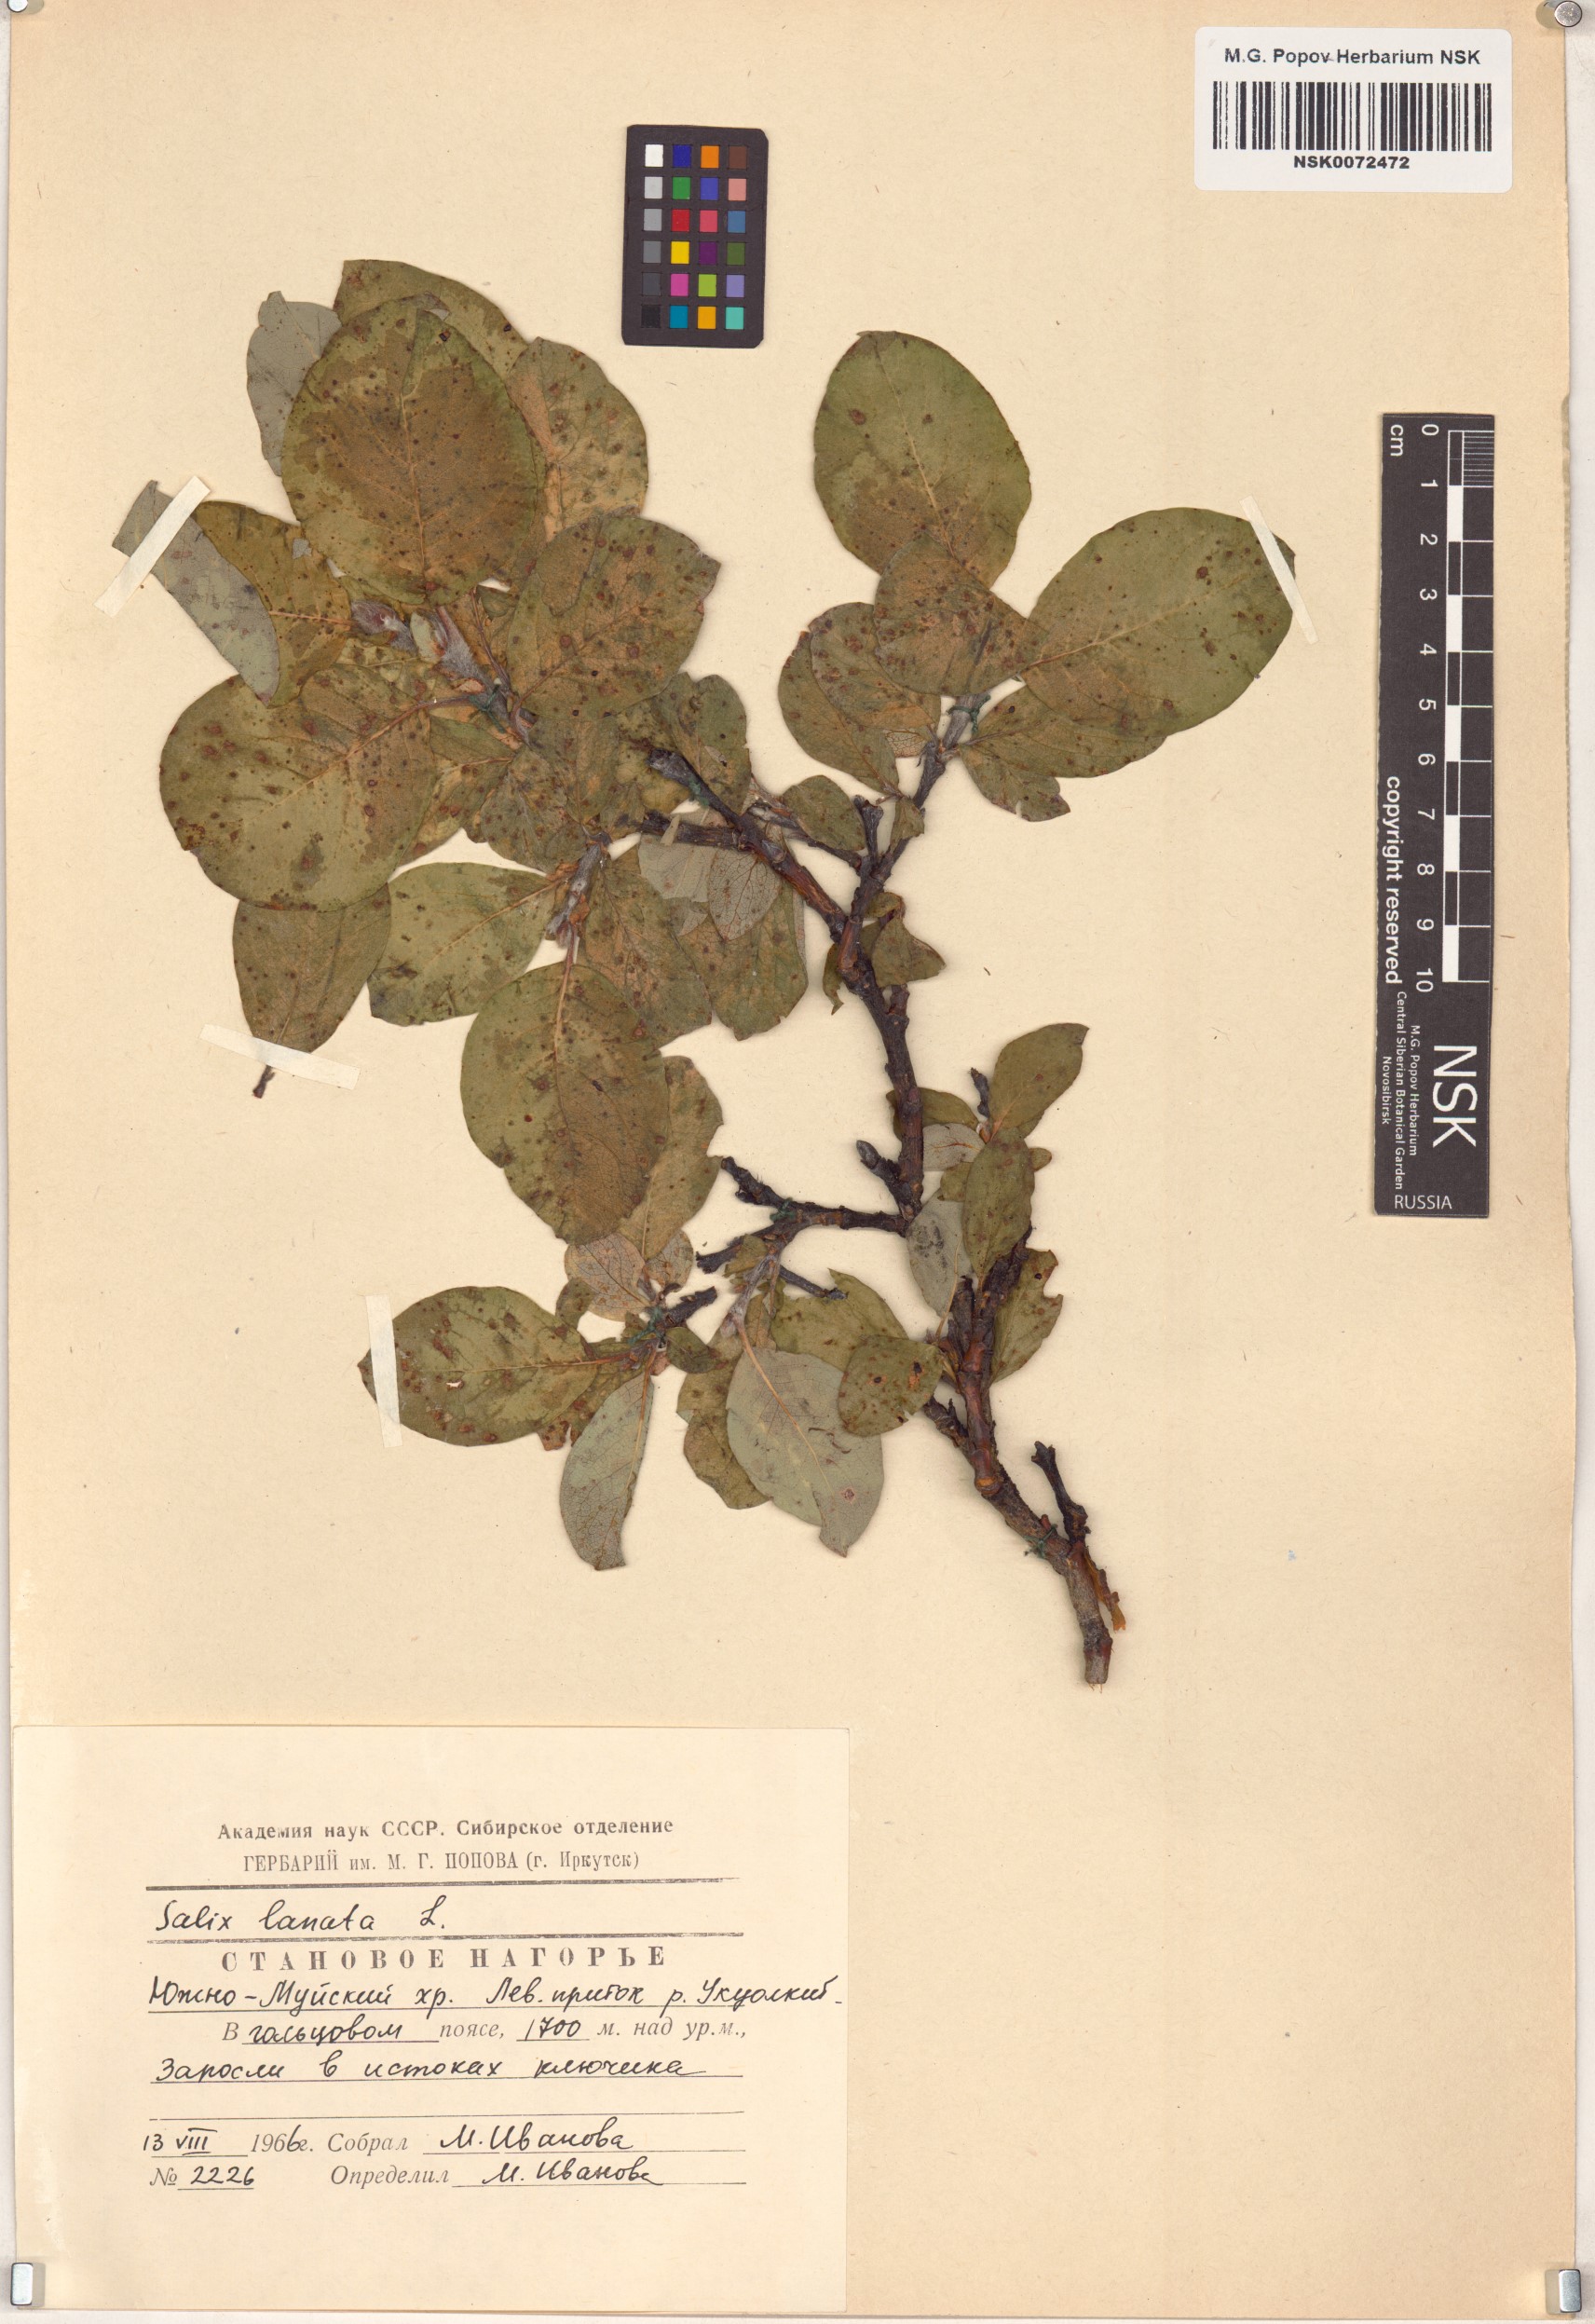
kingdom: Plantae
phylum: Tracheophyta
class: Magnoliopsida
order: Malpighiales
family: Salicaceae
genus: Salix
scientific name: Salix lanata
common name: Woolly willow
